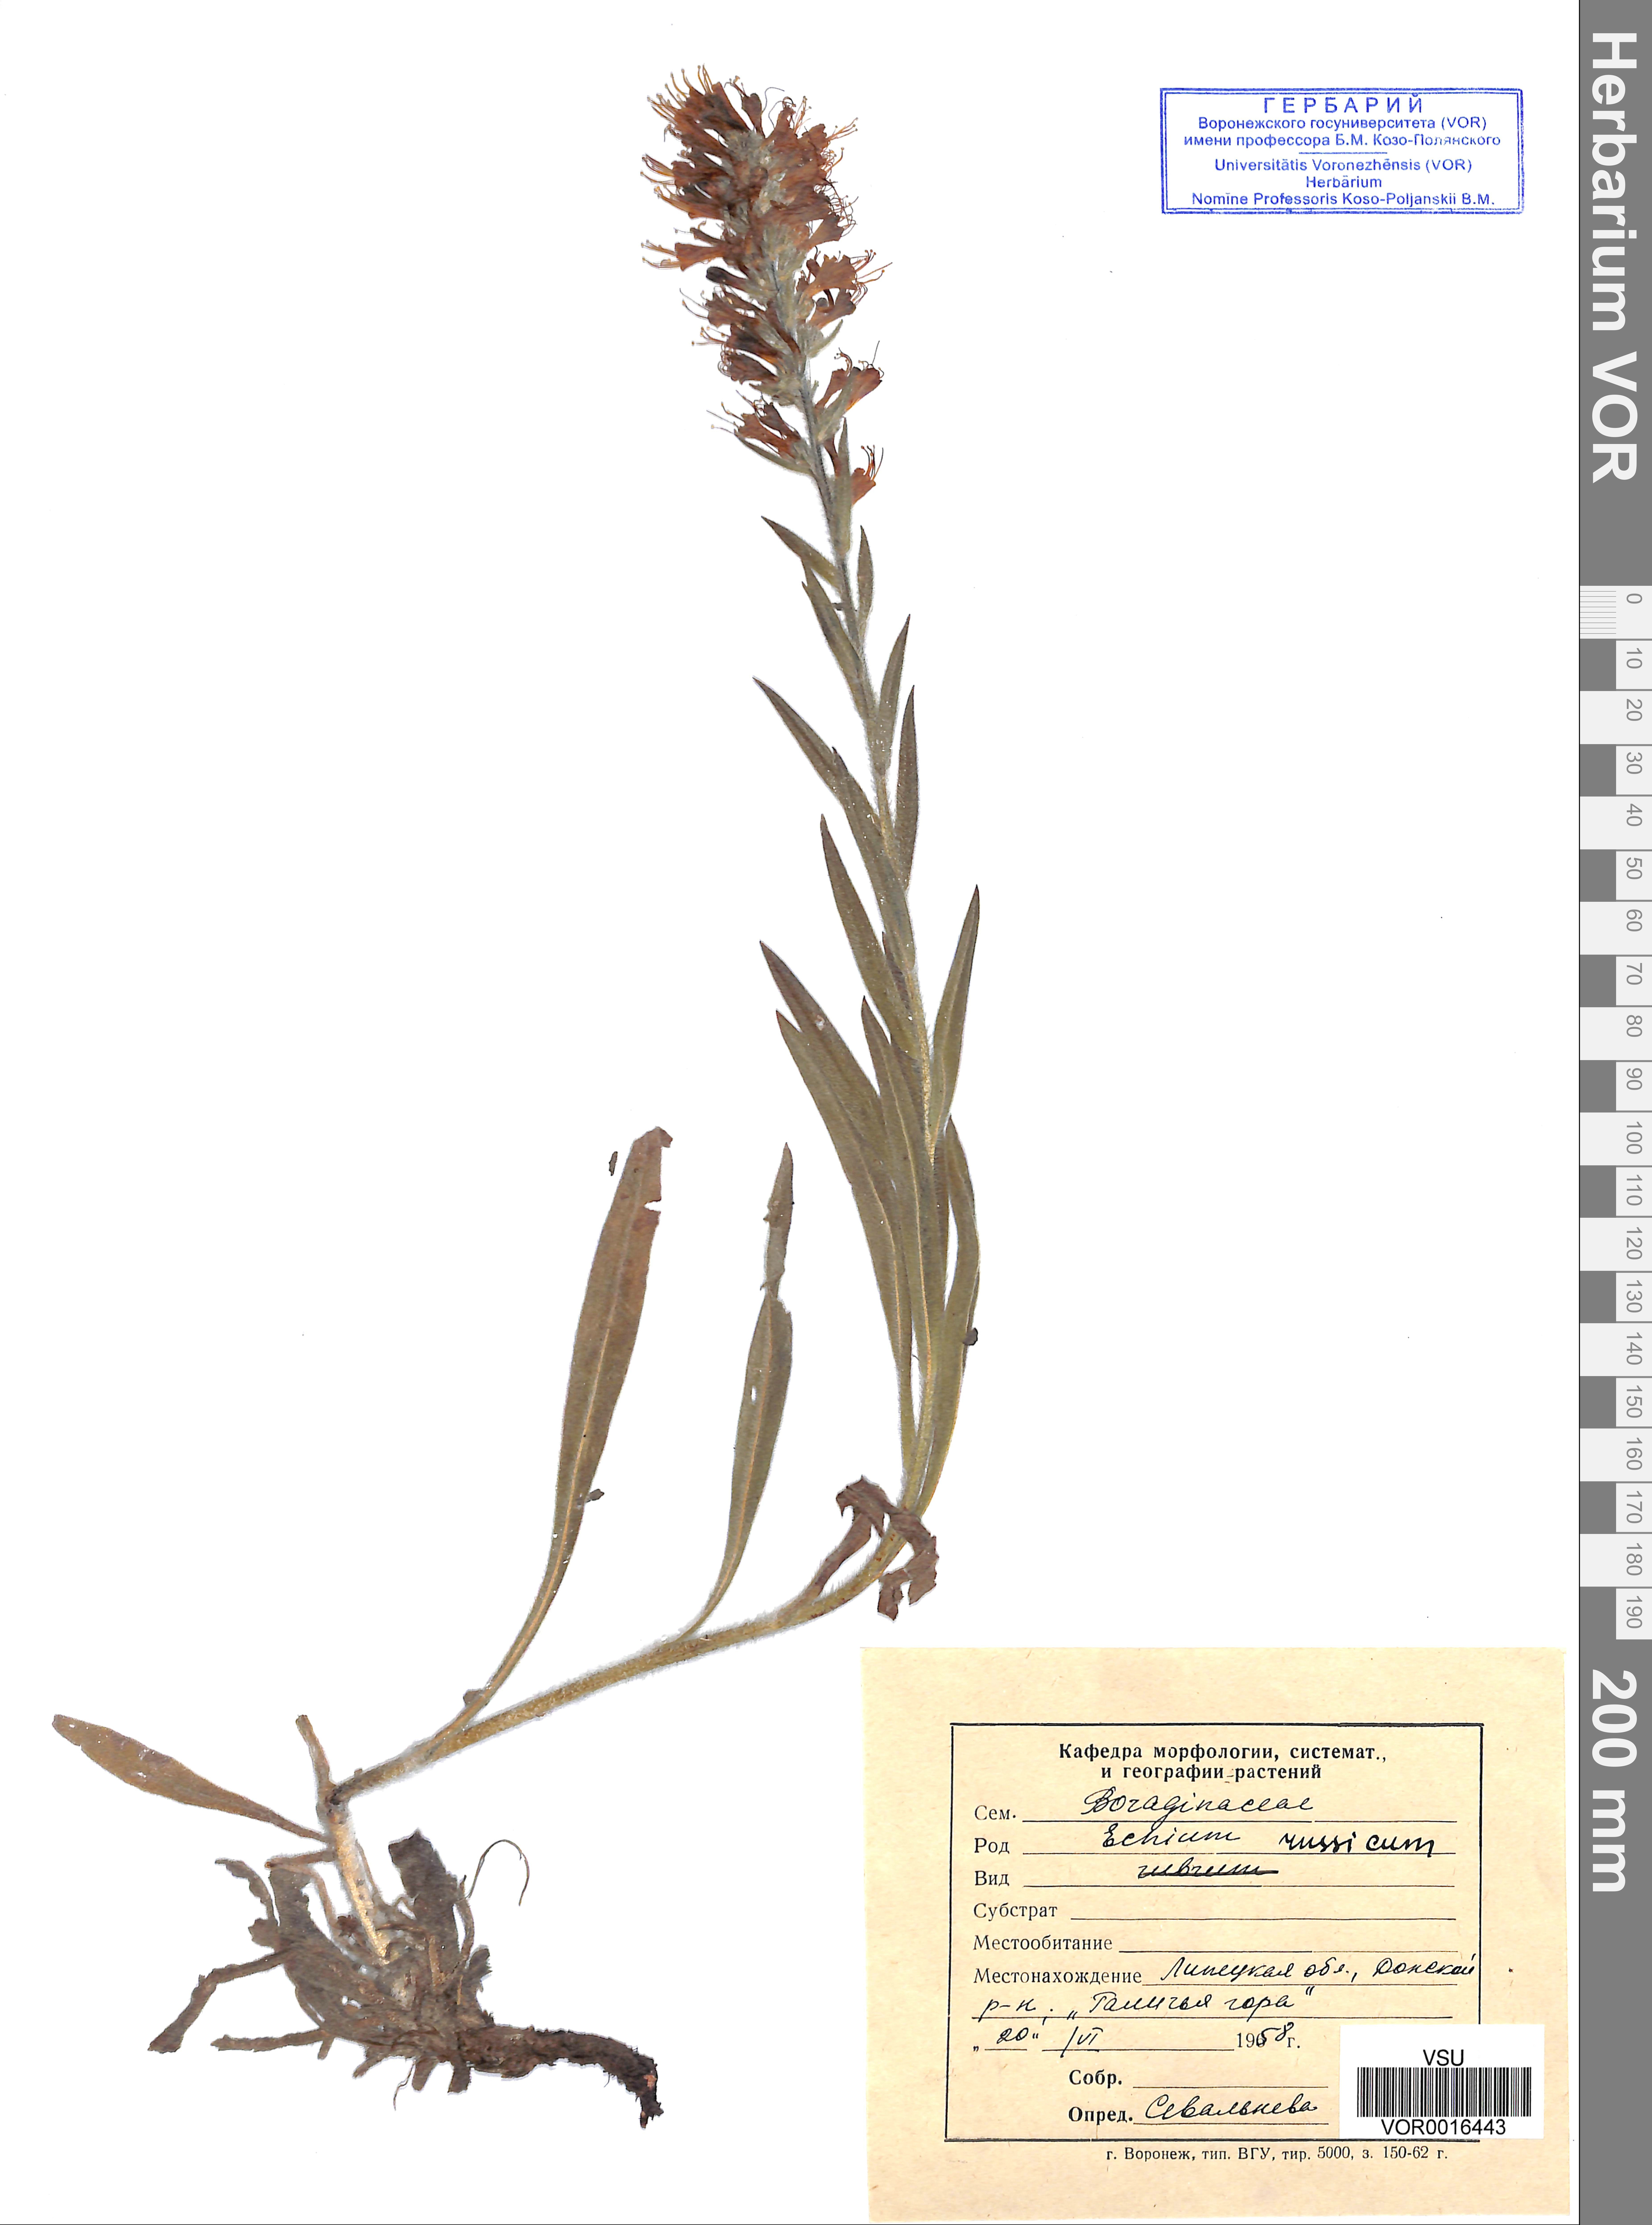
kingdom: Plantae
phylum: Tracheophyta
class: Magnoliopsida
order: Boraginales
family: Boraginaceae
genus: Pontechium
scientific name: Pontechium maculatum
